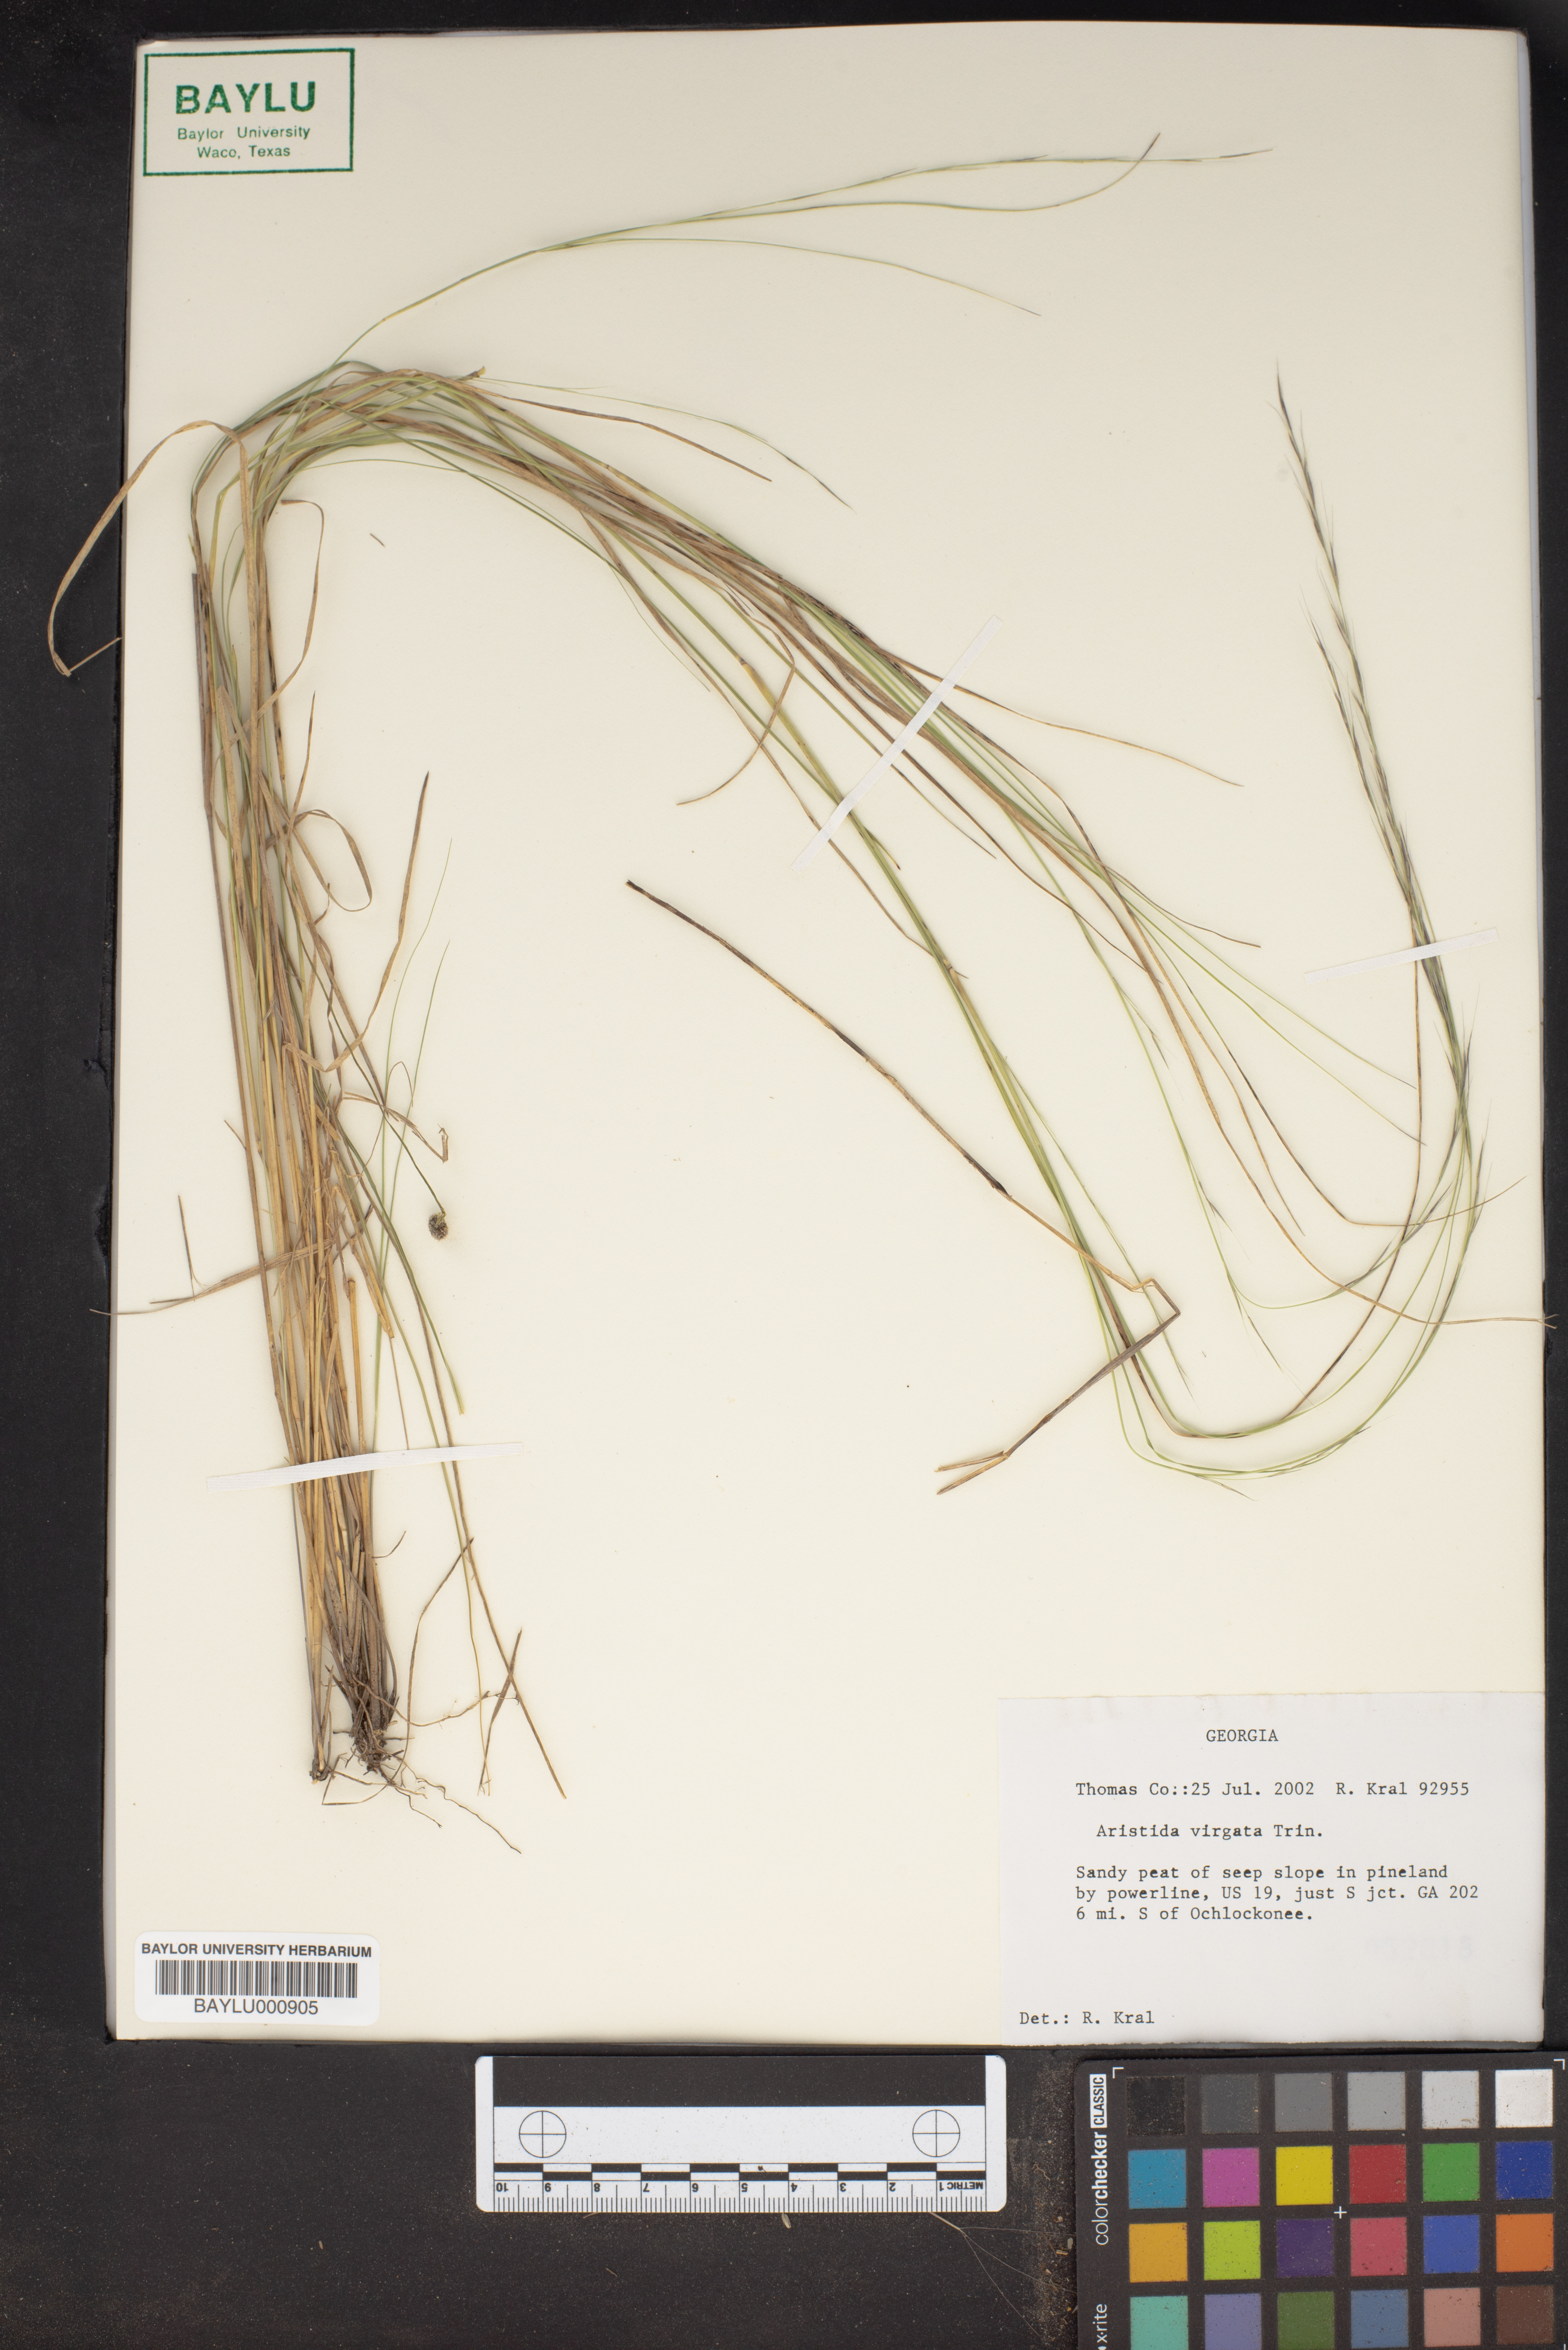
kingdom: Plantae
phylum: Tracheophyta
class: Liliopsida
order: Poales
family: Poaceae
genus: Aristida
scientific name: Aristida virgata
